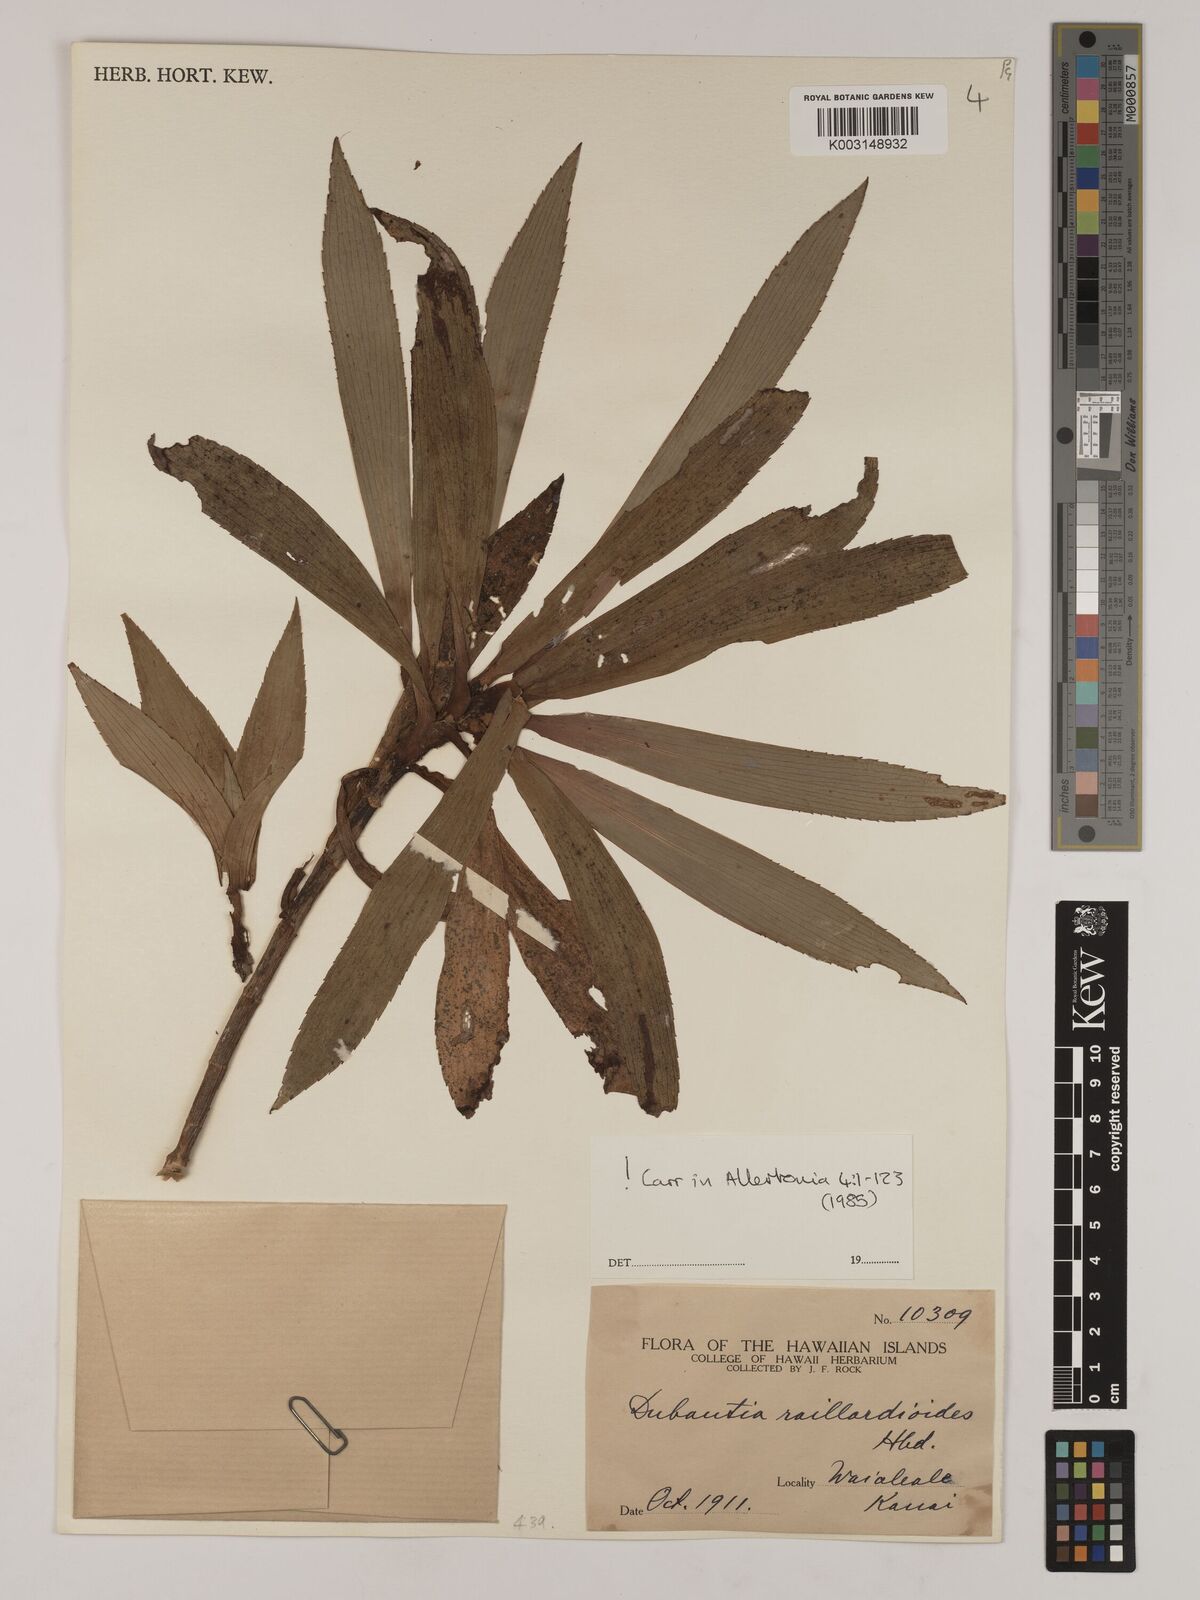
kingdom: Plantae
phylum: Tracheophyta
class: Magnoliopsida
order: Asterales
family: Asteraceae
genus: Dubautia
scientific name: Dubautia raillardioides
